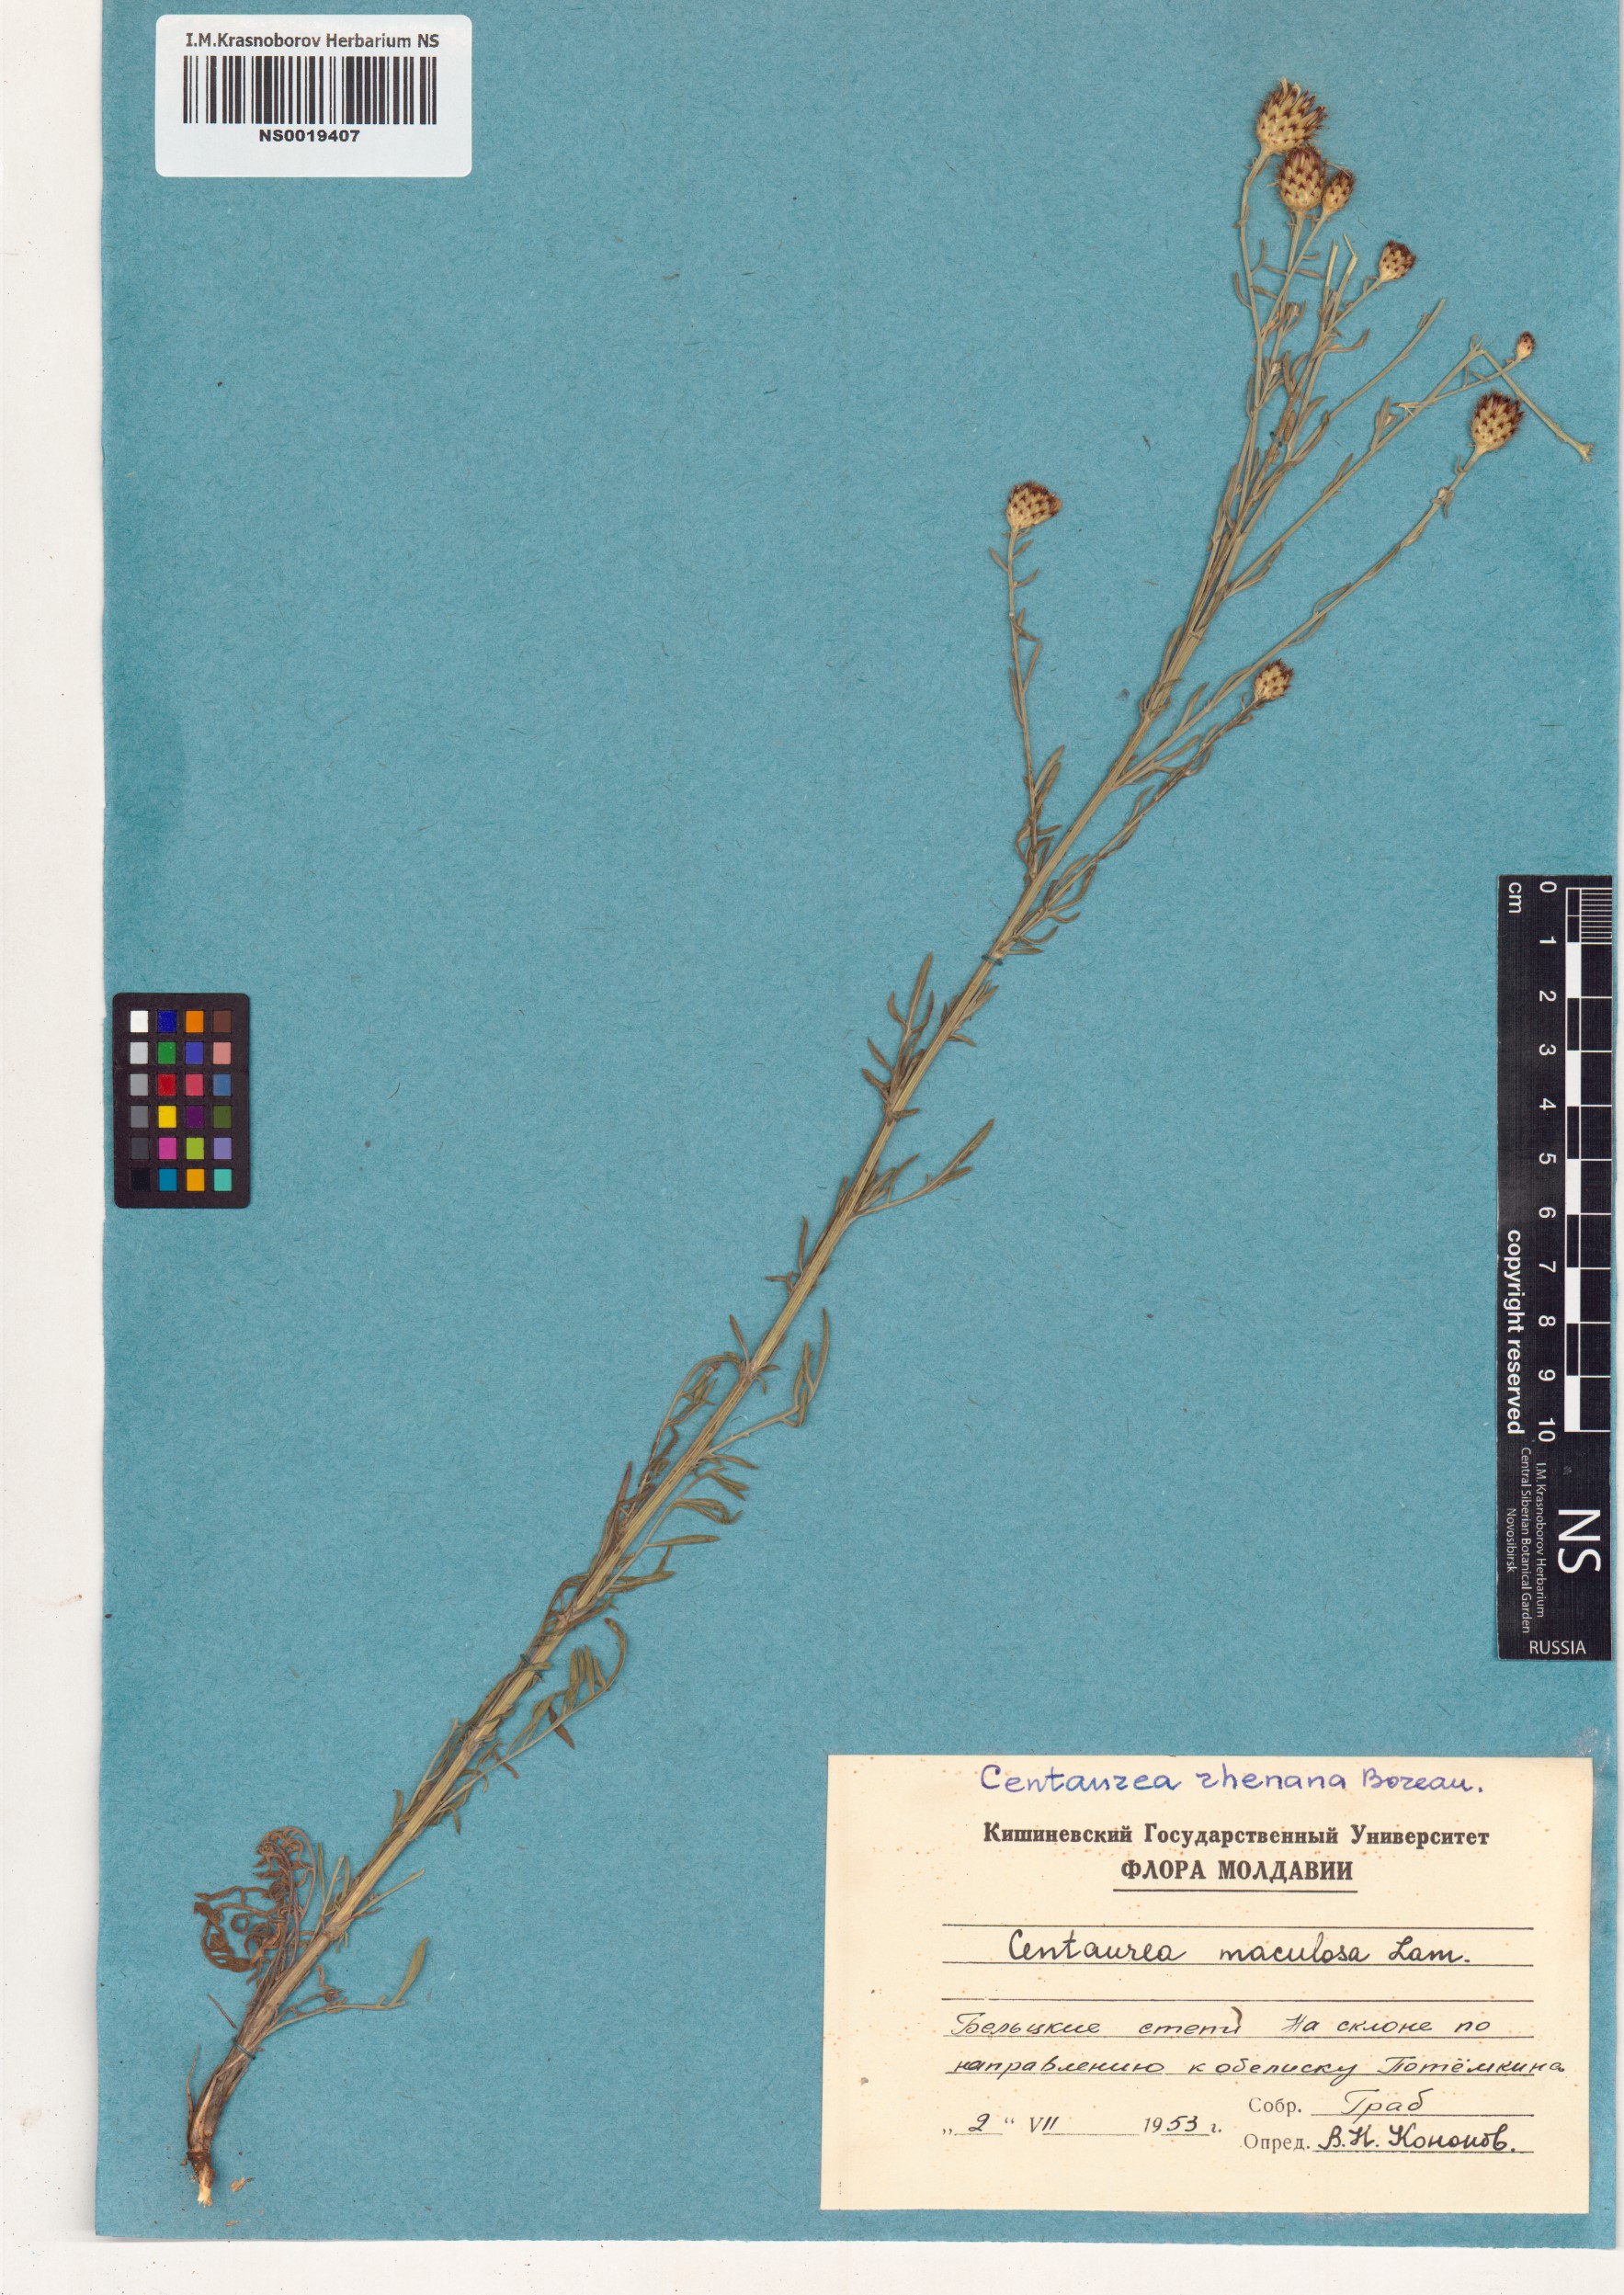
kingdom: Plantae
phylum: Tracheophyta
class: Magnoliopsida
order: Asterales
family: Asteraceae
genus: Centaurea
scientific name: Centaurea stoebe
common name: Spotted knapweed
